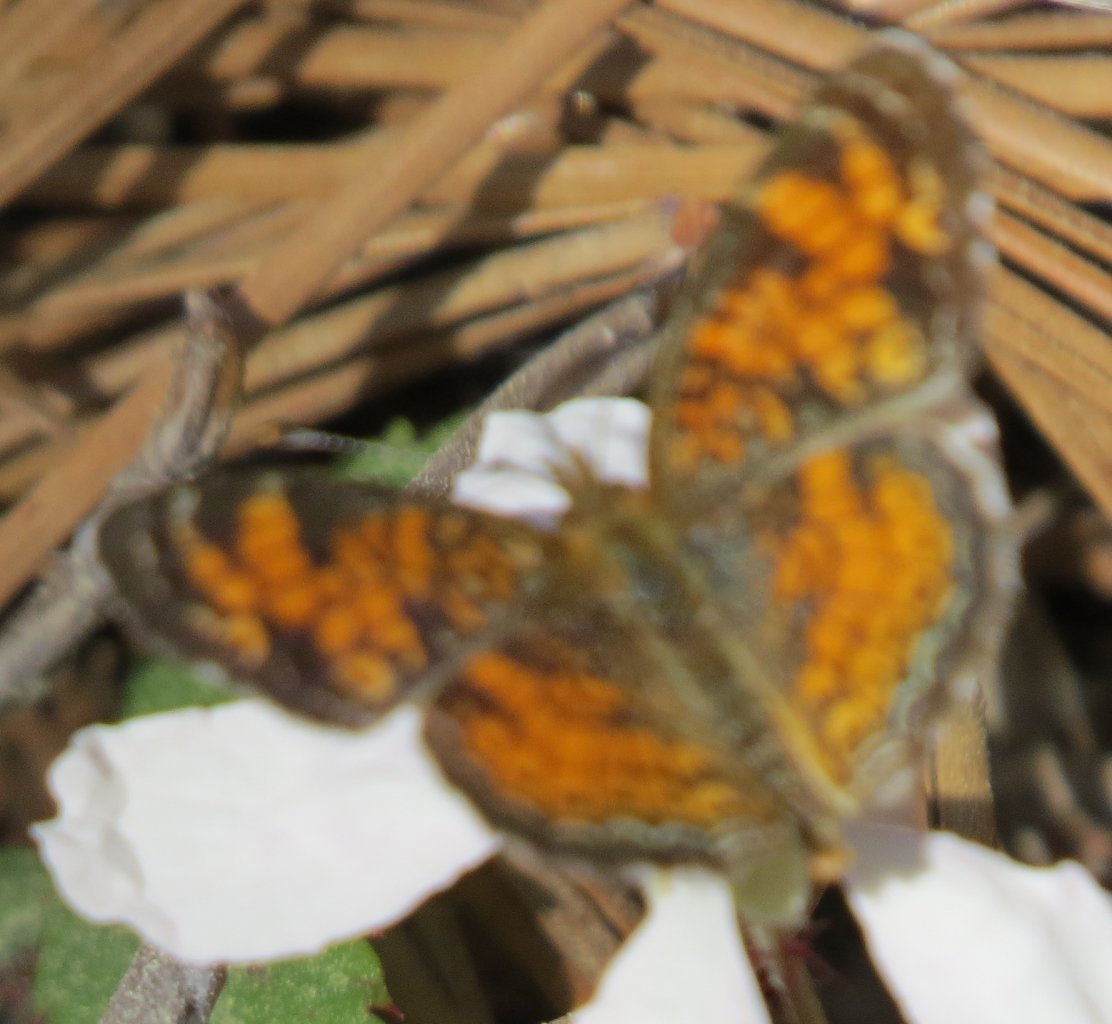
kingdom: Animalia
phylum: Arthropoda
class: Insecta
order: Lepidoptera
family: Nymphalidae
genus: Phyciodes
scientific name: Phyciodes tharos
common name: Pearl Crescent
